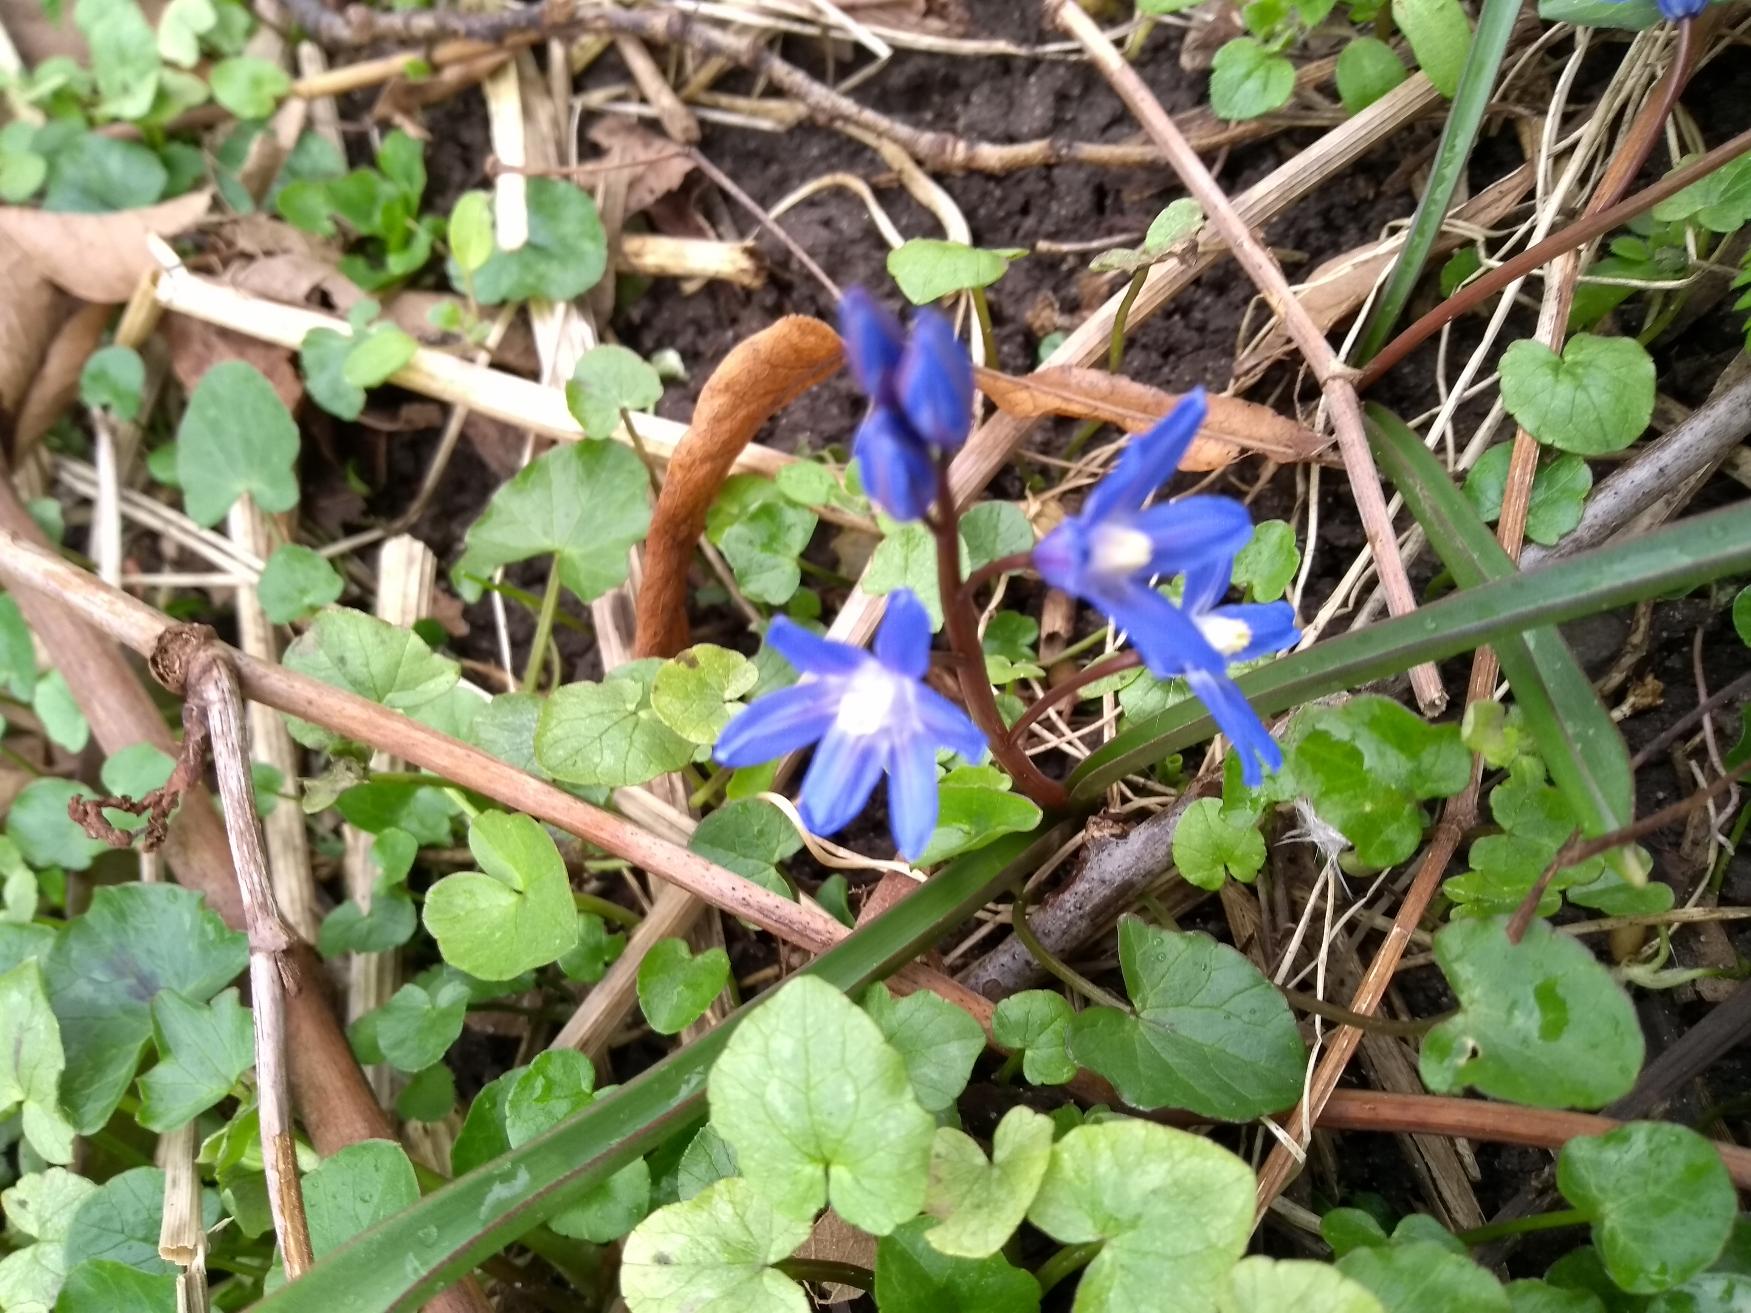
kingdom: Plantae
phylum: Tracheophyta
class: Liliopsida
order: Asparagales
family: Asparagaceae
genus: Scilla
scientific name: Scilla forbesii
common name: Almindelig snepryd
